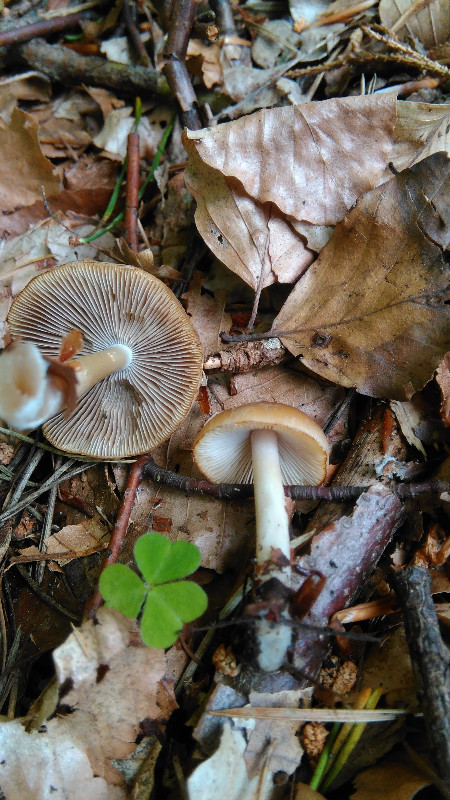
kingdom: Fungi
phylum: Basidiomycota
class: Agaricomycetes
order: Agaricales
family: Psathyrellaceae
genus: Psathyrella
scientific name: Psathyrella
